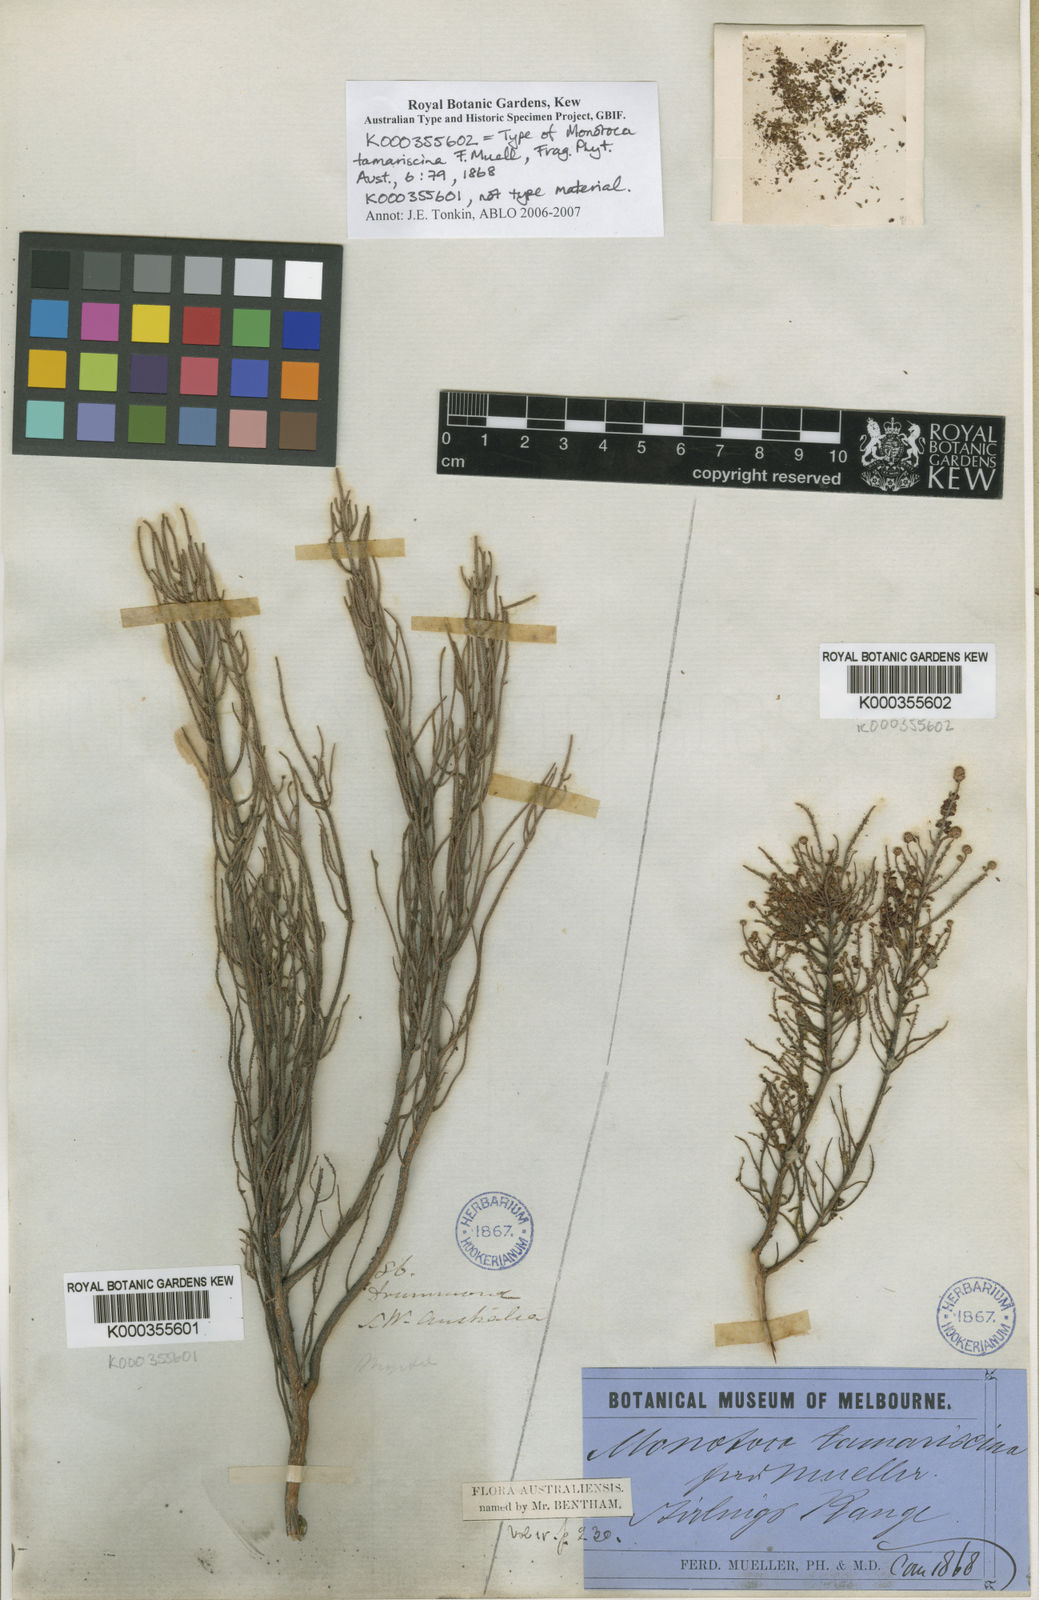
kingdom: Plantae
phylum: Tracheophyta
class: Magnoliopsida
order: Ericales
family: Ericaceae
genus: Dielsiodoxa
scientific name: Dielsiodoxa tamariscina
